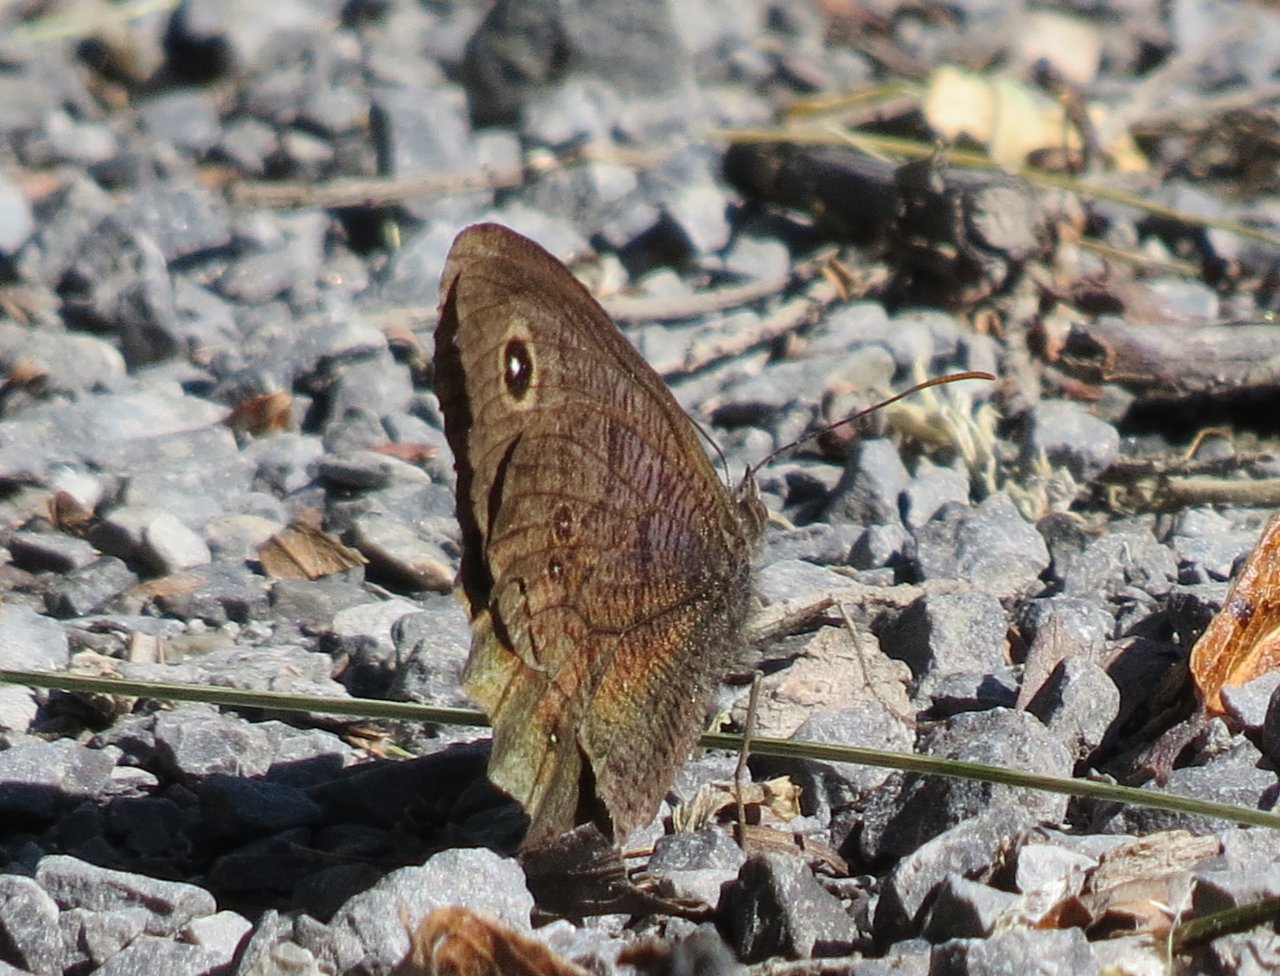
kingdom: Animalia
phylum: Arthropoda
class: Insecta
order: Lepidoptera
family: Nymphalidae
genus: Cercyonis
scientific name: Cercyonis pegala
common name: Common Wood-Nymph
